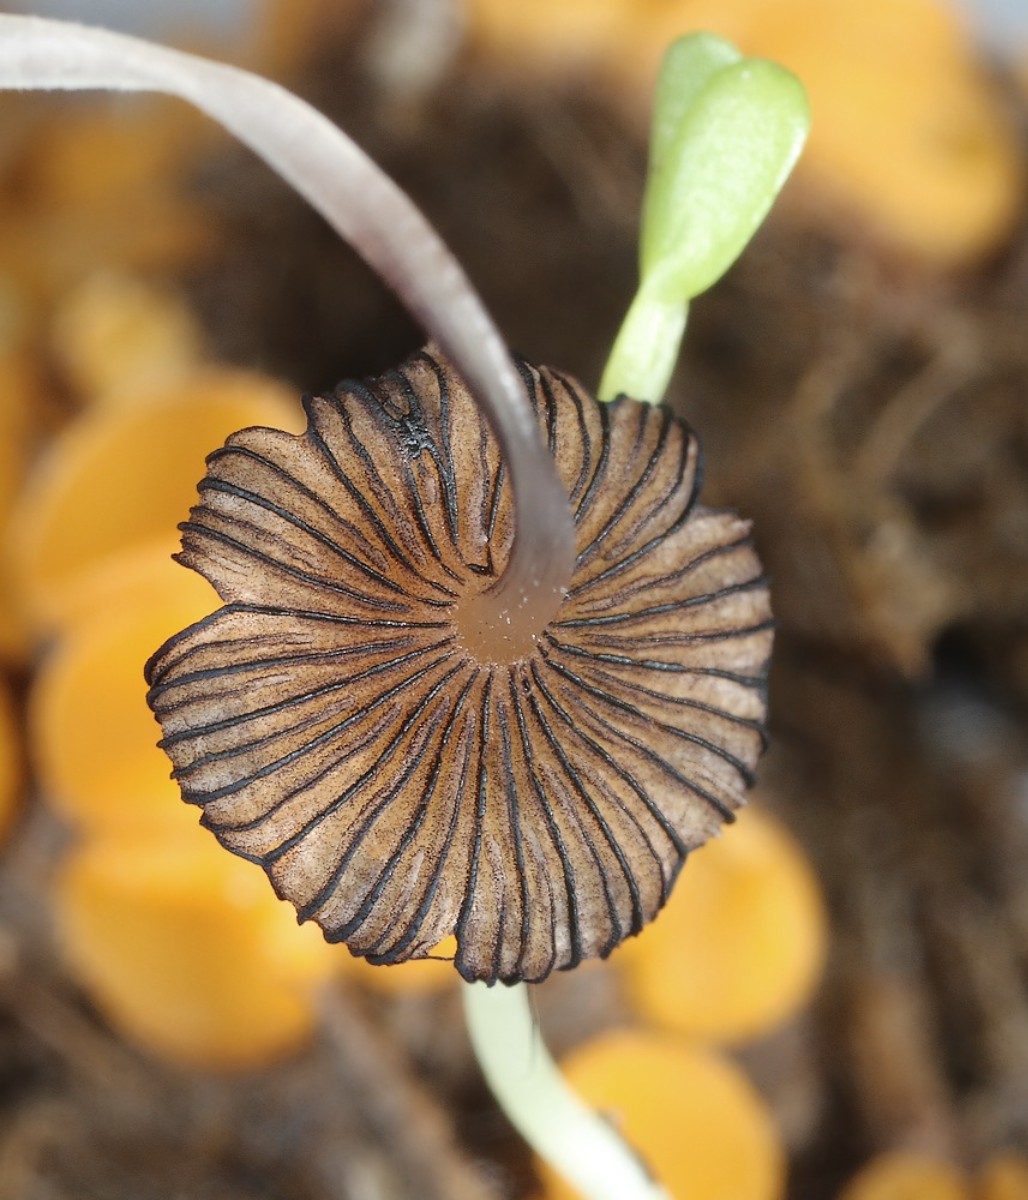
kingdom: Fungi
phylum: Basidiomycota
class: Agaricomycetes
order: Agaricales
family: Psathyrellaceae
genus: Coprinellus
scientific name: Coprinellus
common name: blækhat
